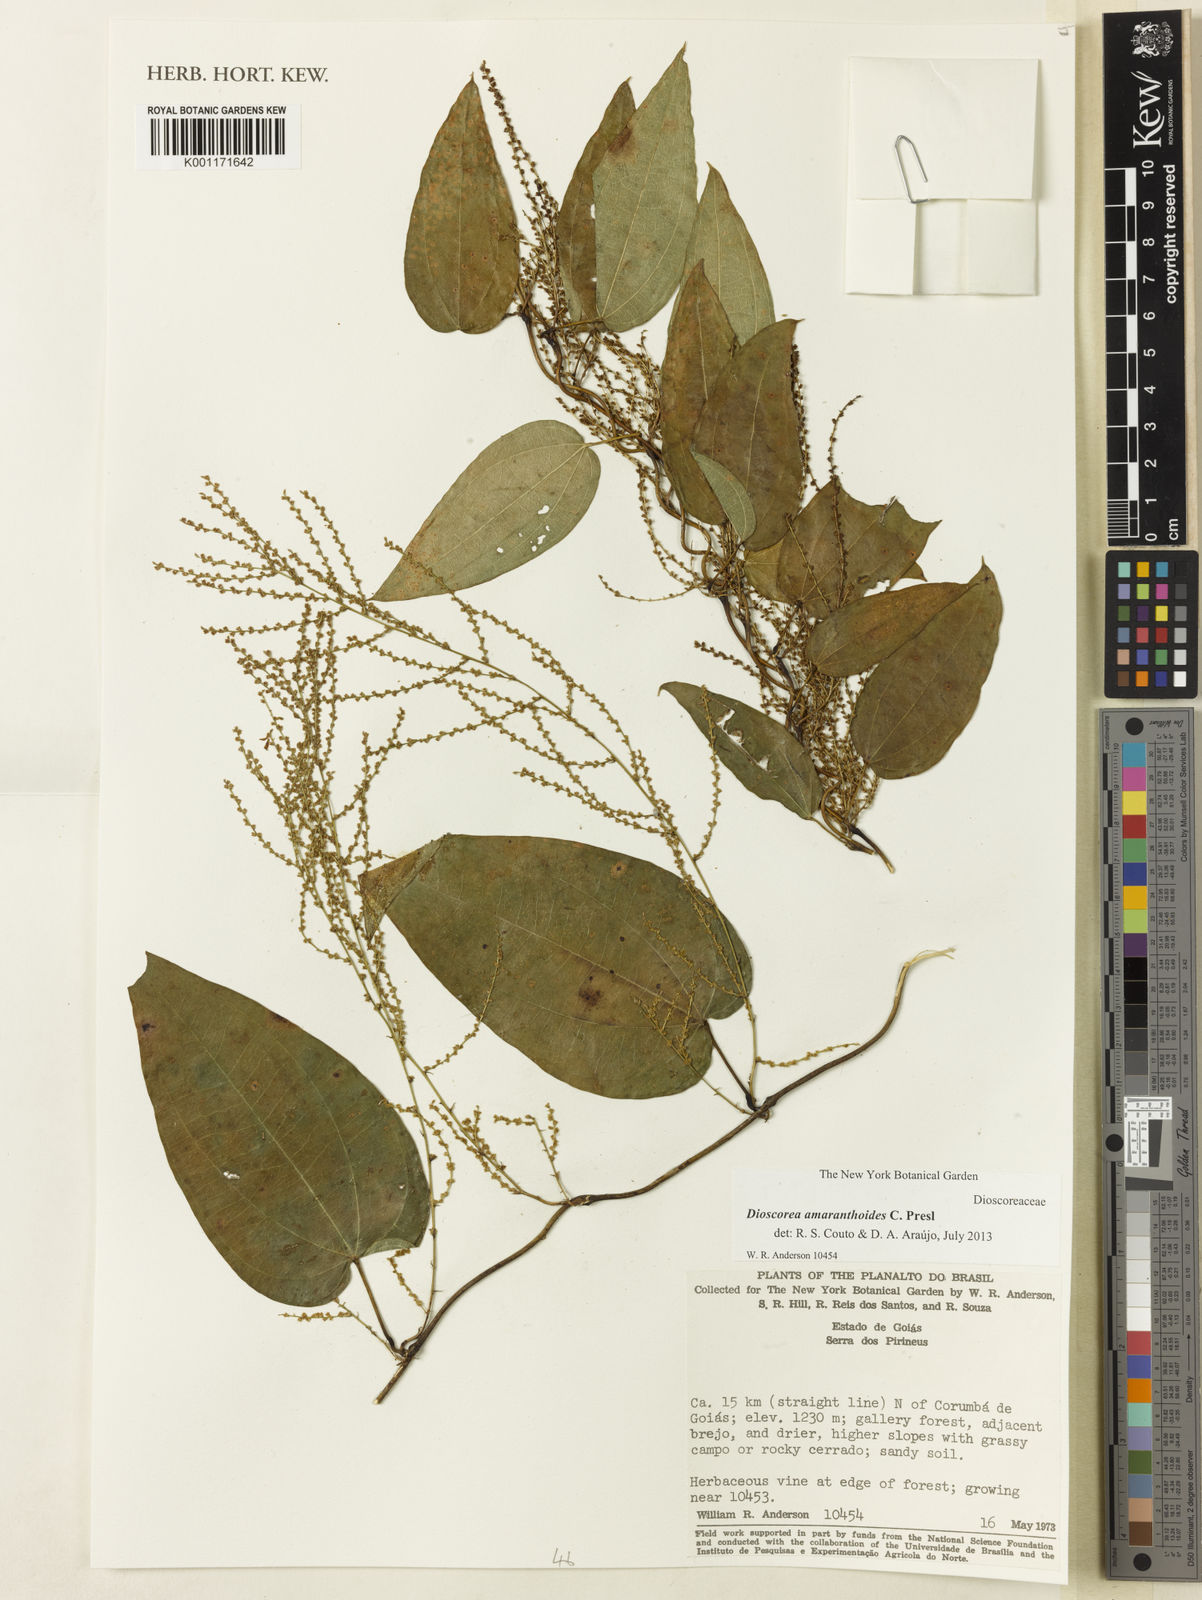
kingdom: Plantae
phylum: Tracheophyta
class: Liliopsida
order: Dioscoreales
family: Dioscoreaceae
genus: Dioscorea
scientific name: Dioscorea amaranthoides
